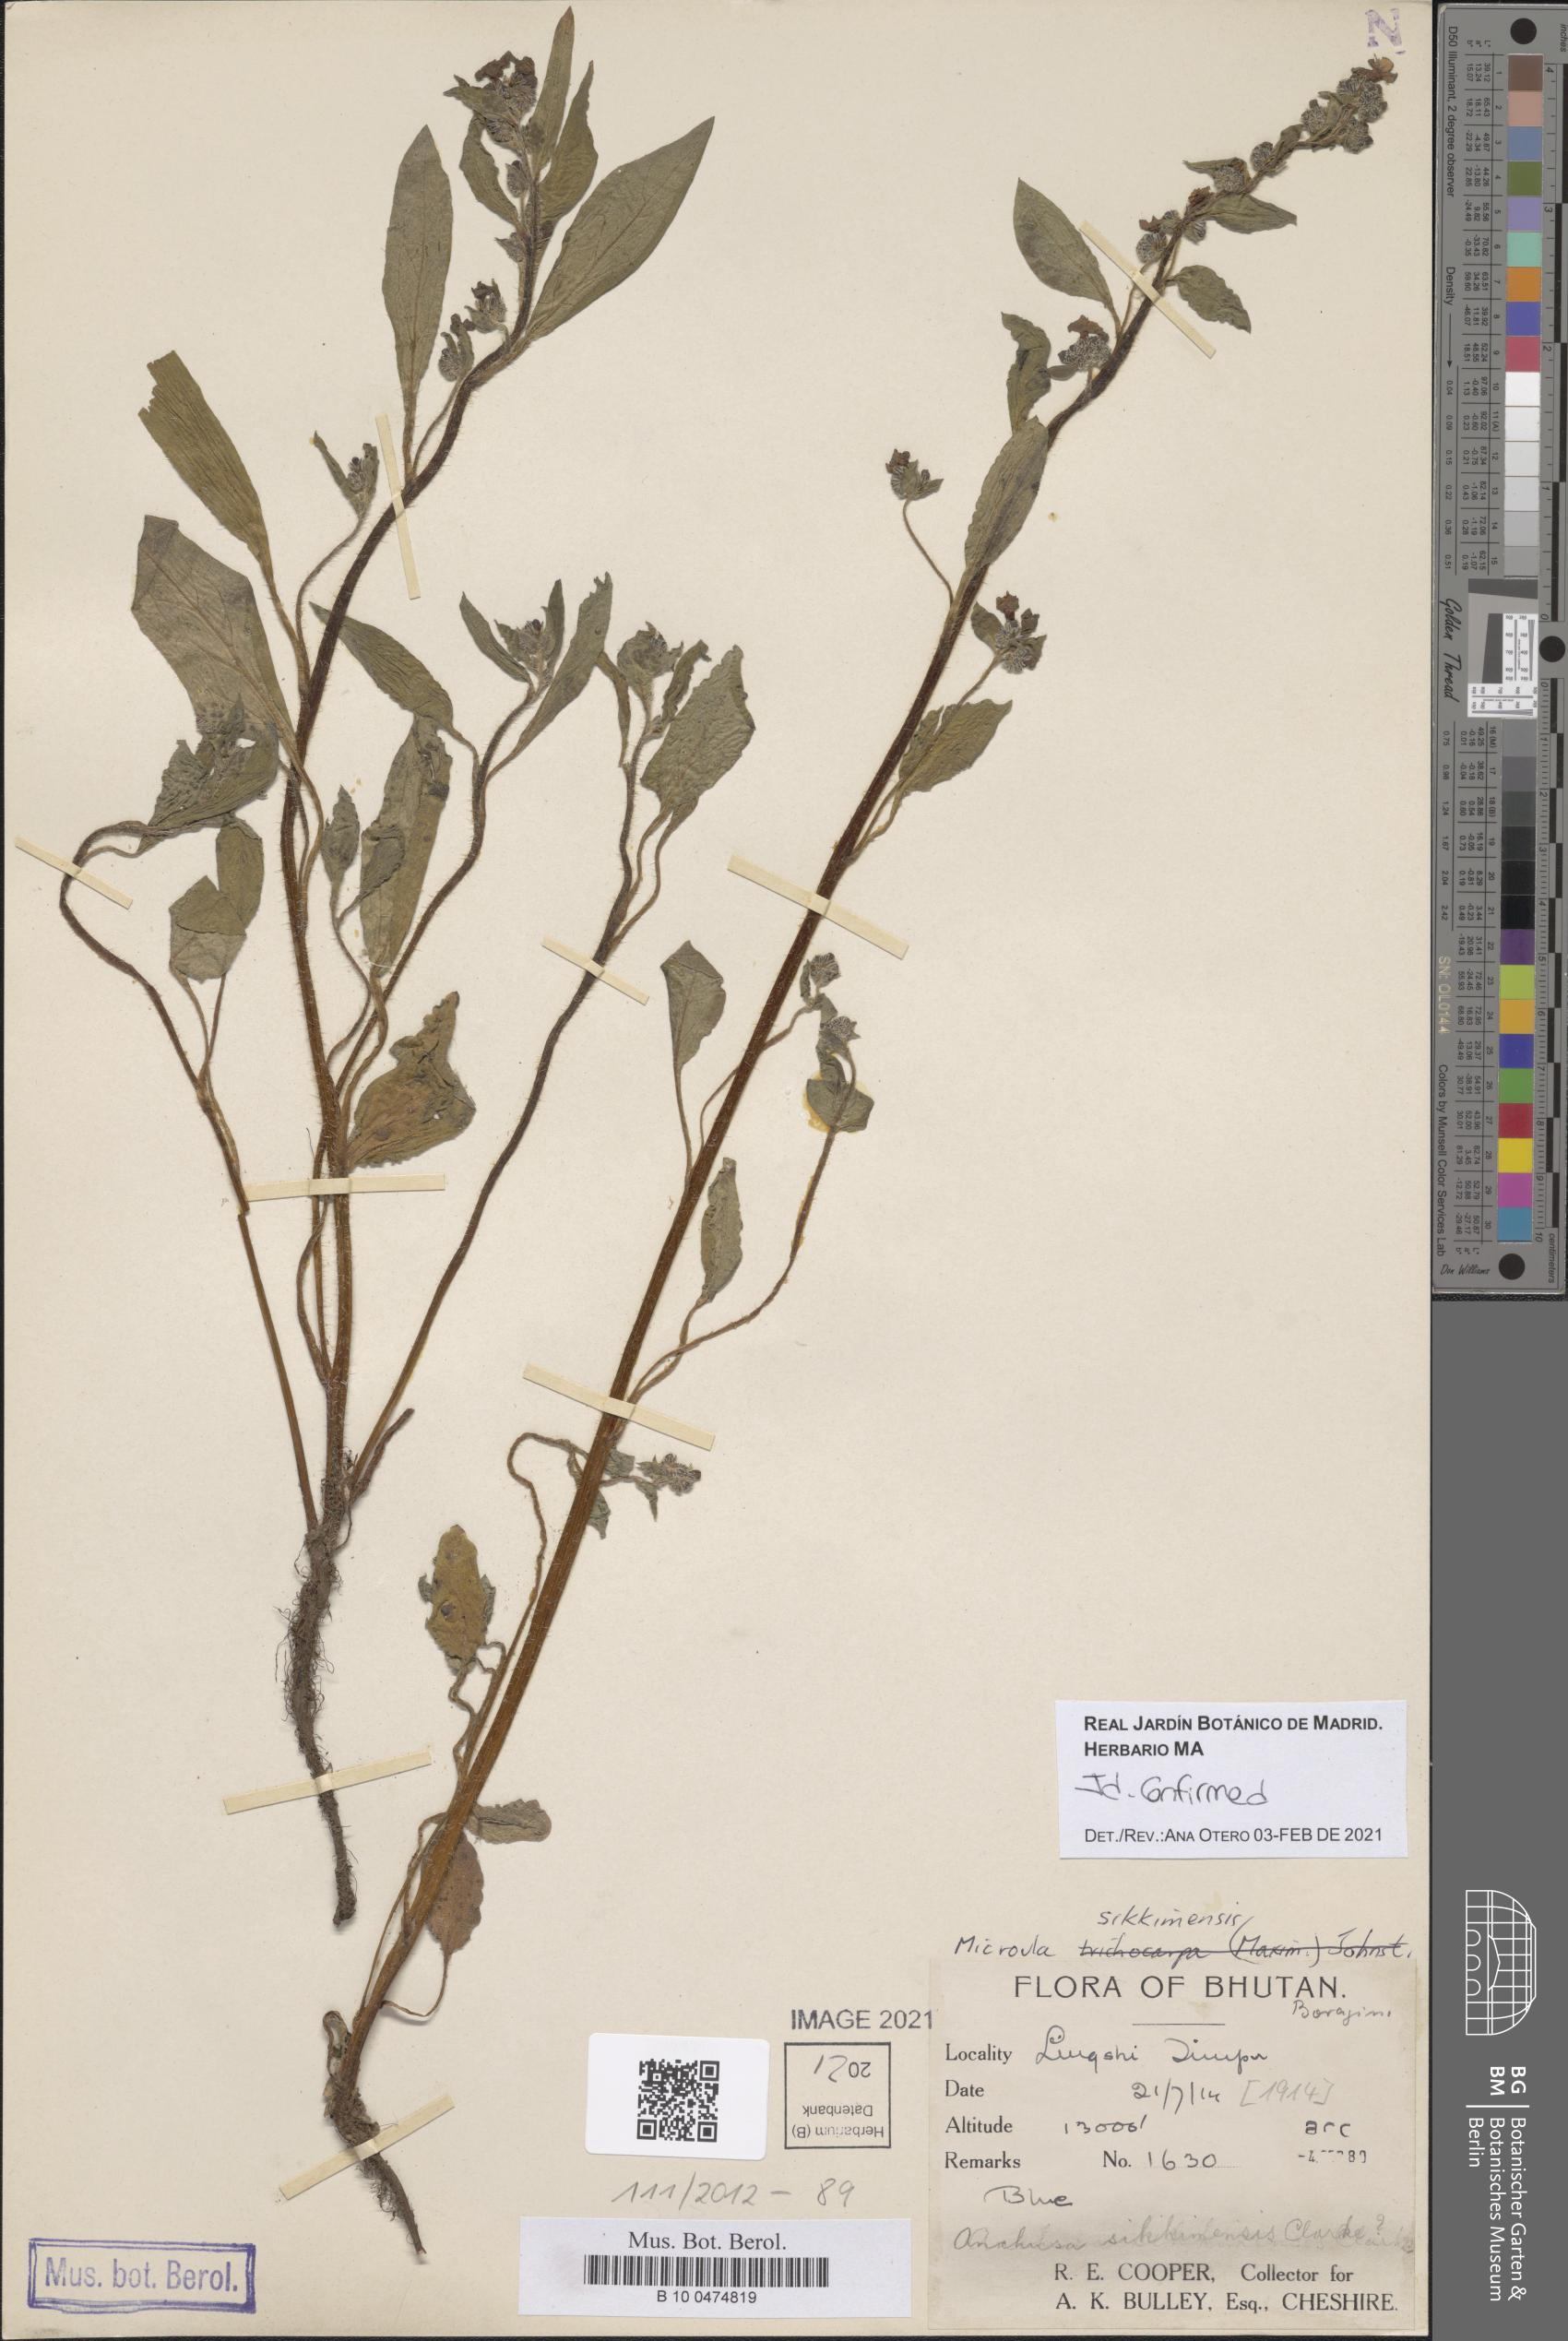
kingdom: Plantae
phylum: Tracheophyta
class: Magnoliopsida
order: Boraginales
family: Boraginaceae
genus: Microula
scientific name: Microula sikkimensis
